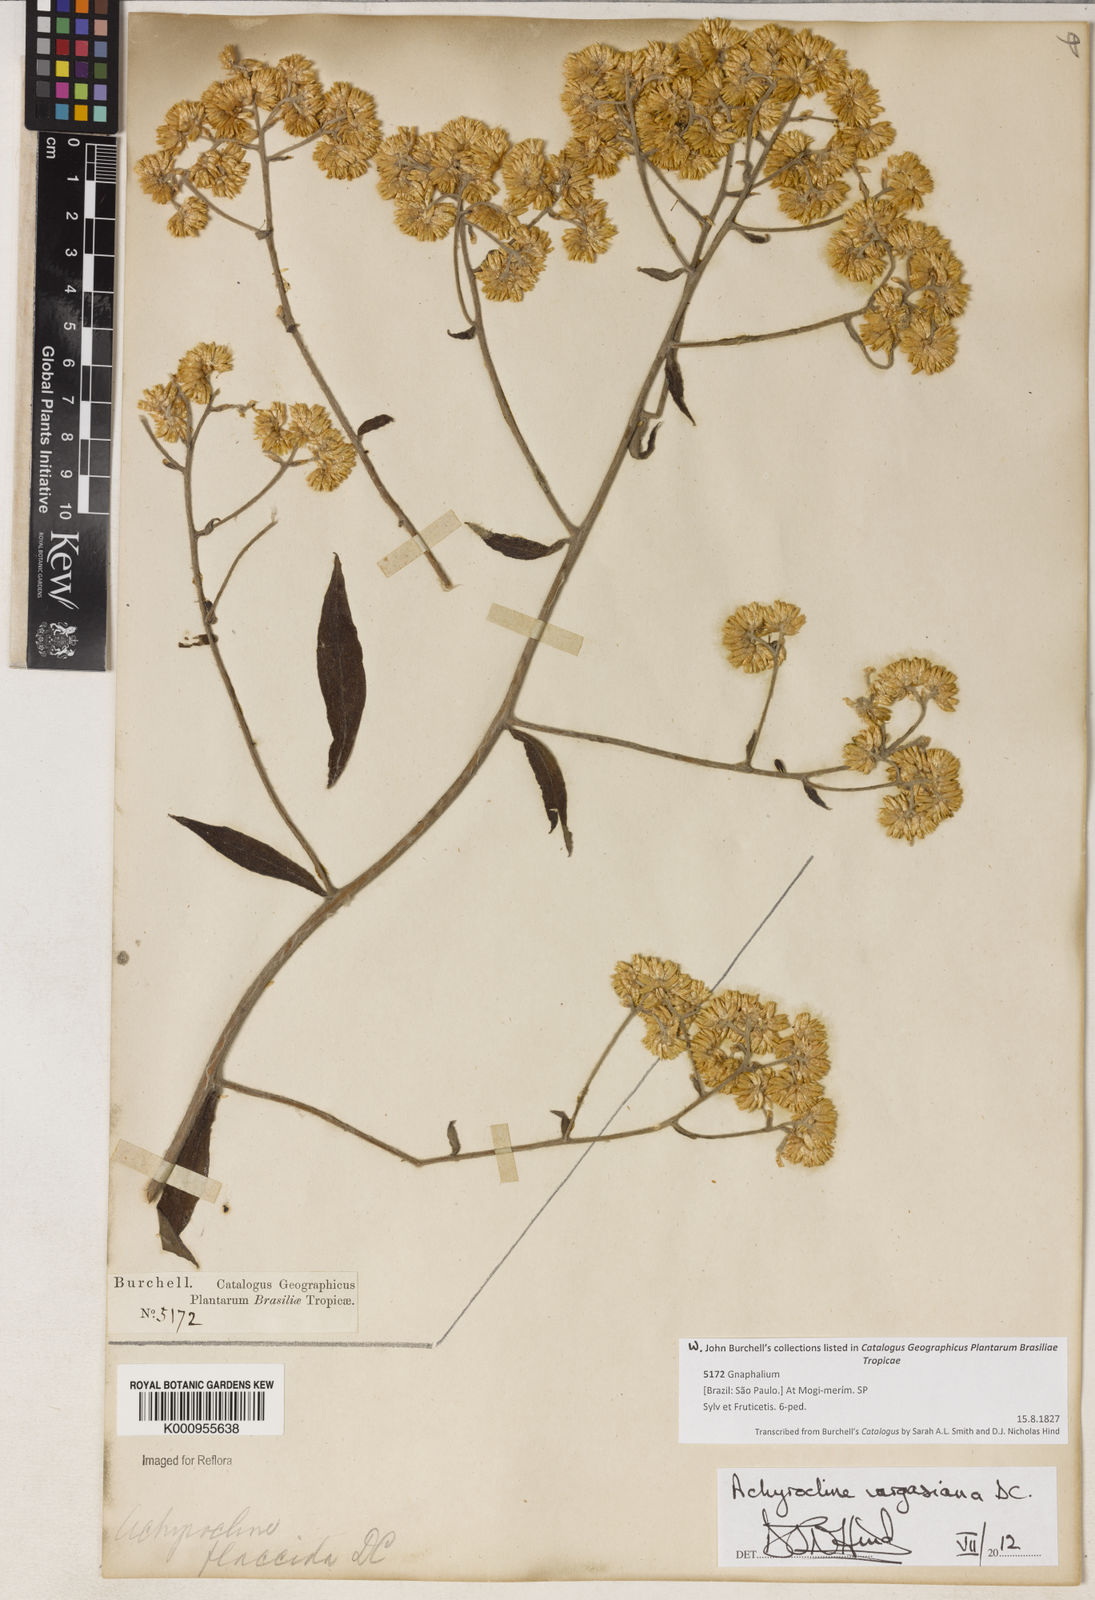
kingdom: Plantae
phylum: Tracheophyta
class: Magnoliopsida
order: Asterales
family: Asteraceae
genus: Achyrocline
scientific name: Achyrocline vargasiana
